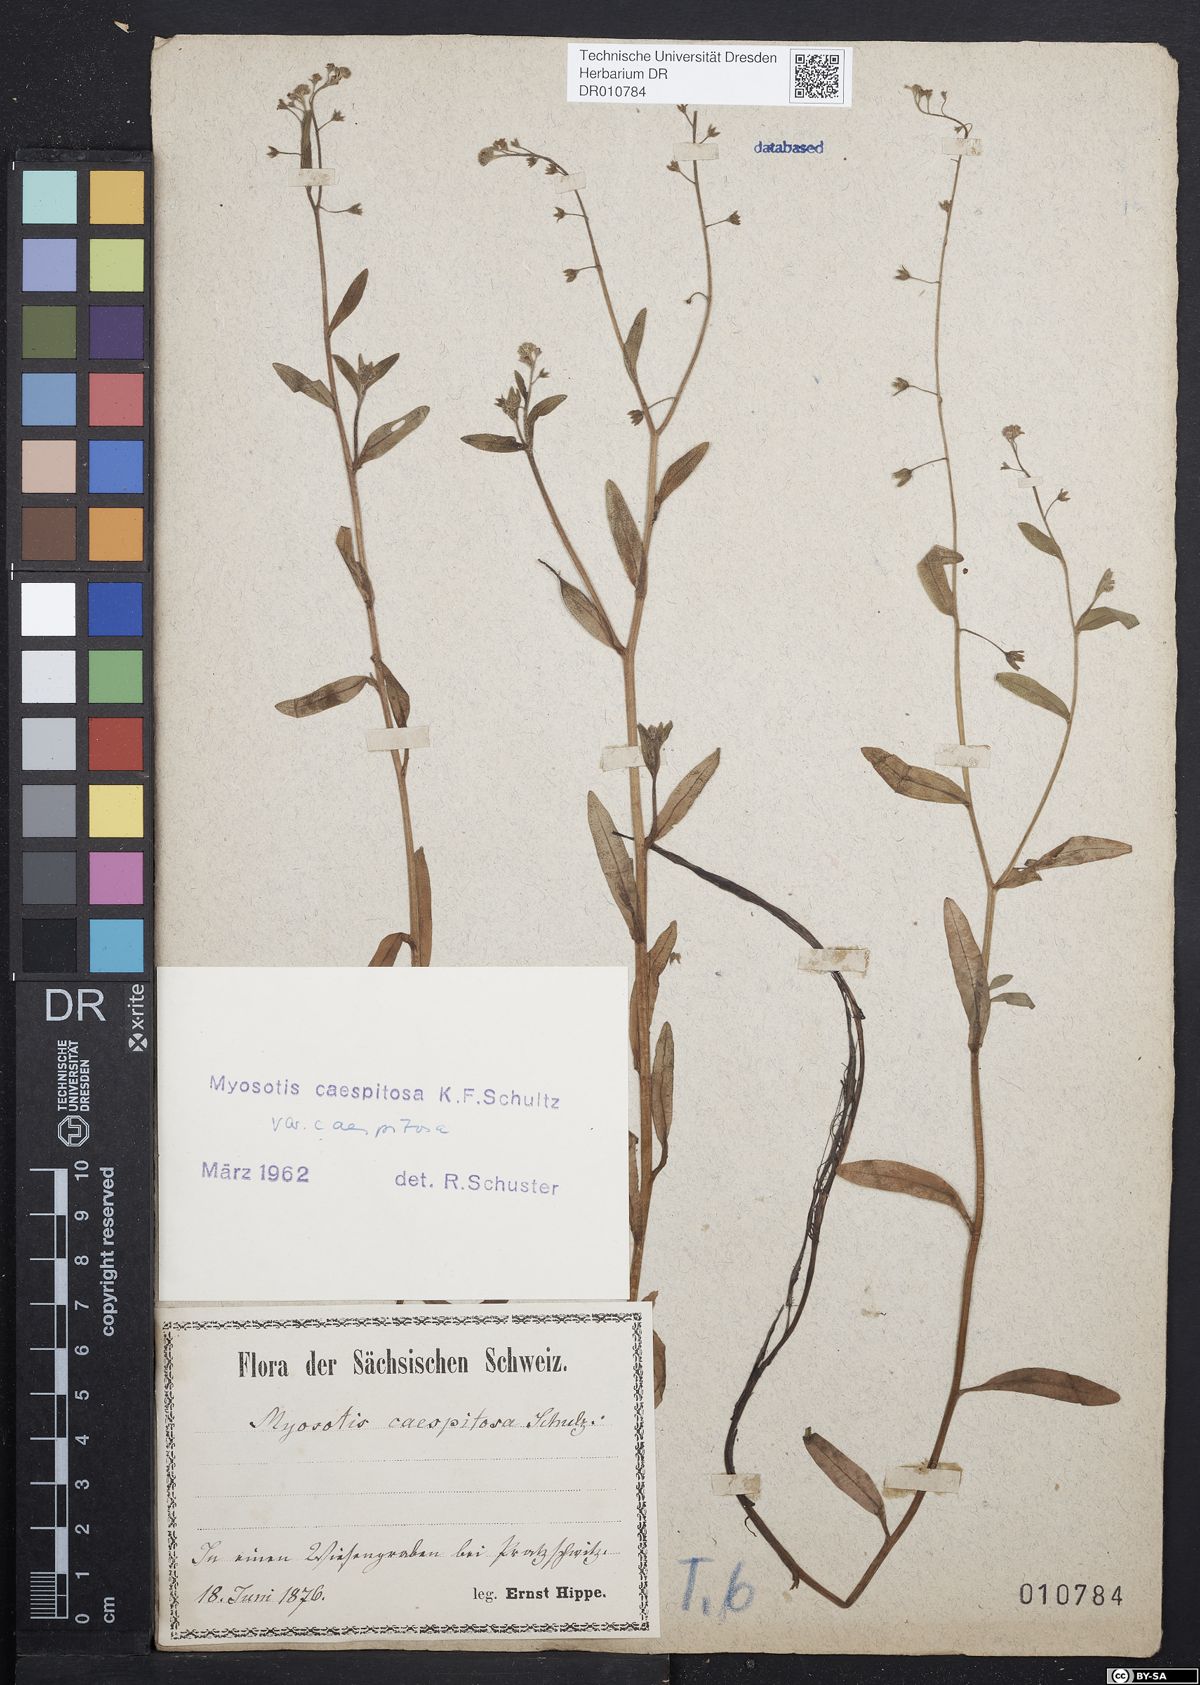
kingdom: Plantae
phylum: Tracheophyta
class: Magnoliopsida
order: Boraginales
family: Boraginaceae
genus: Myosotis
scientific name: Myosotis laxa
